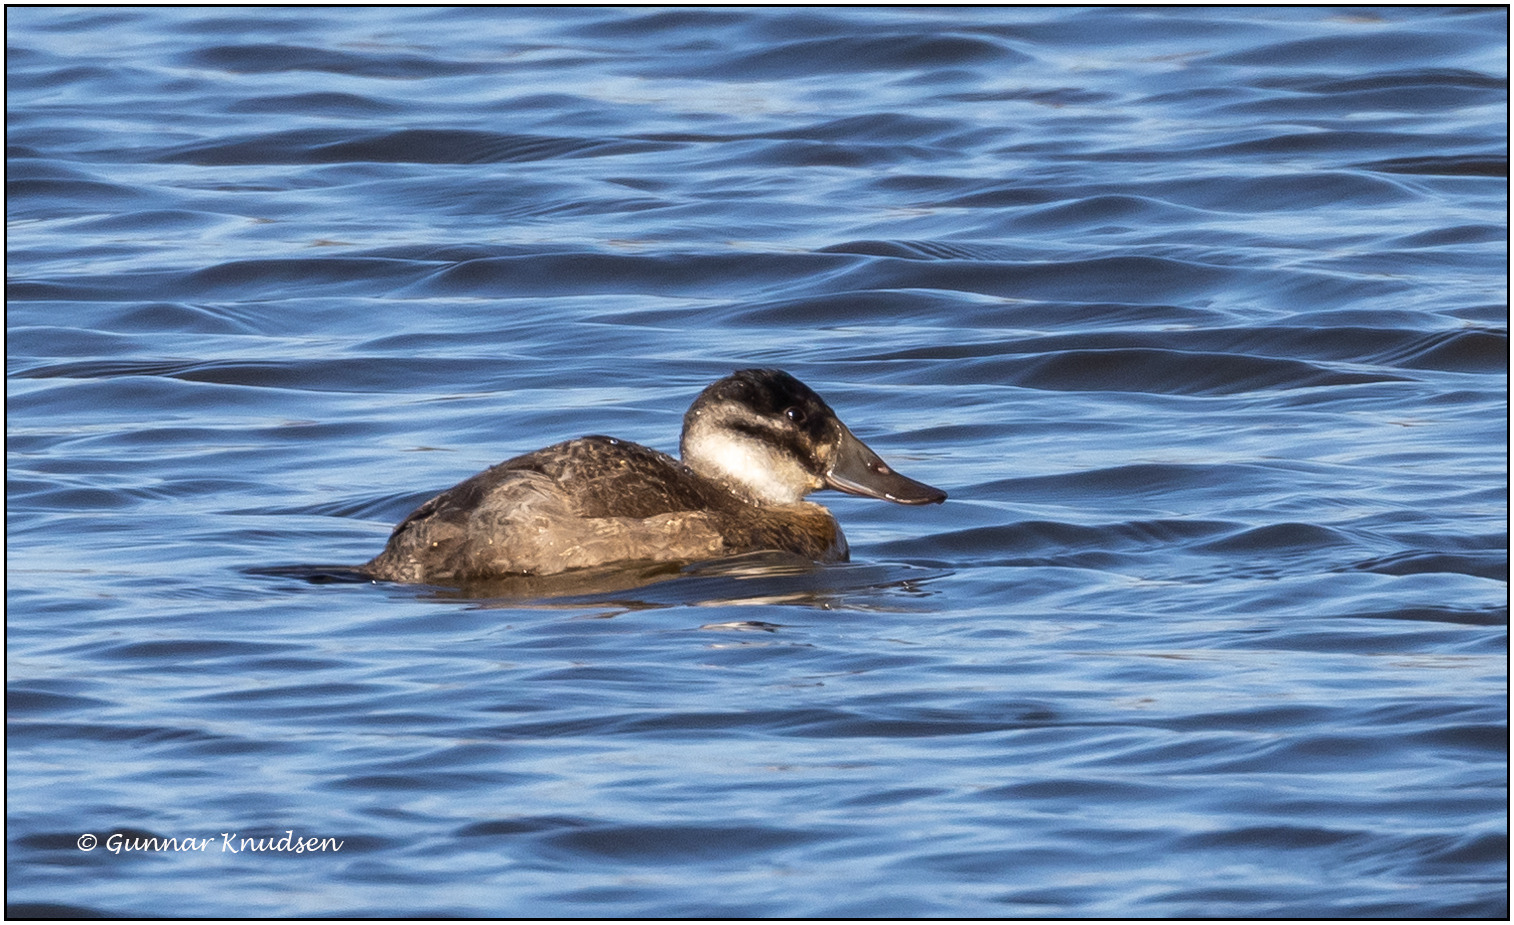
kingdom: Animalia
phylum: Chordata
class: Aves
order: Anseriformes
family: Anatidae
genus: Oxyura
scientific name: Oxyura jamaicensis
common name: Amerikansk skarveand
